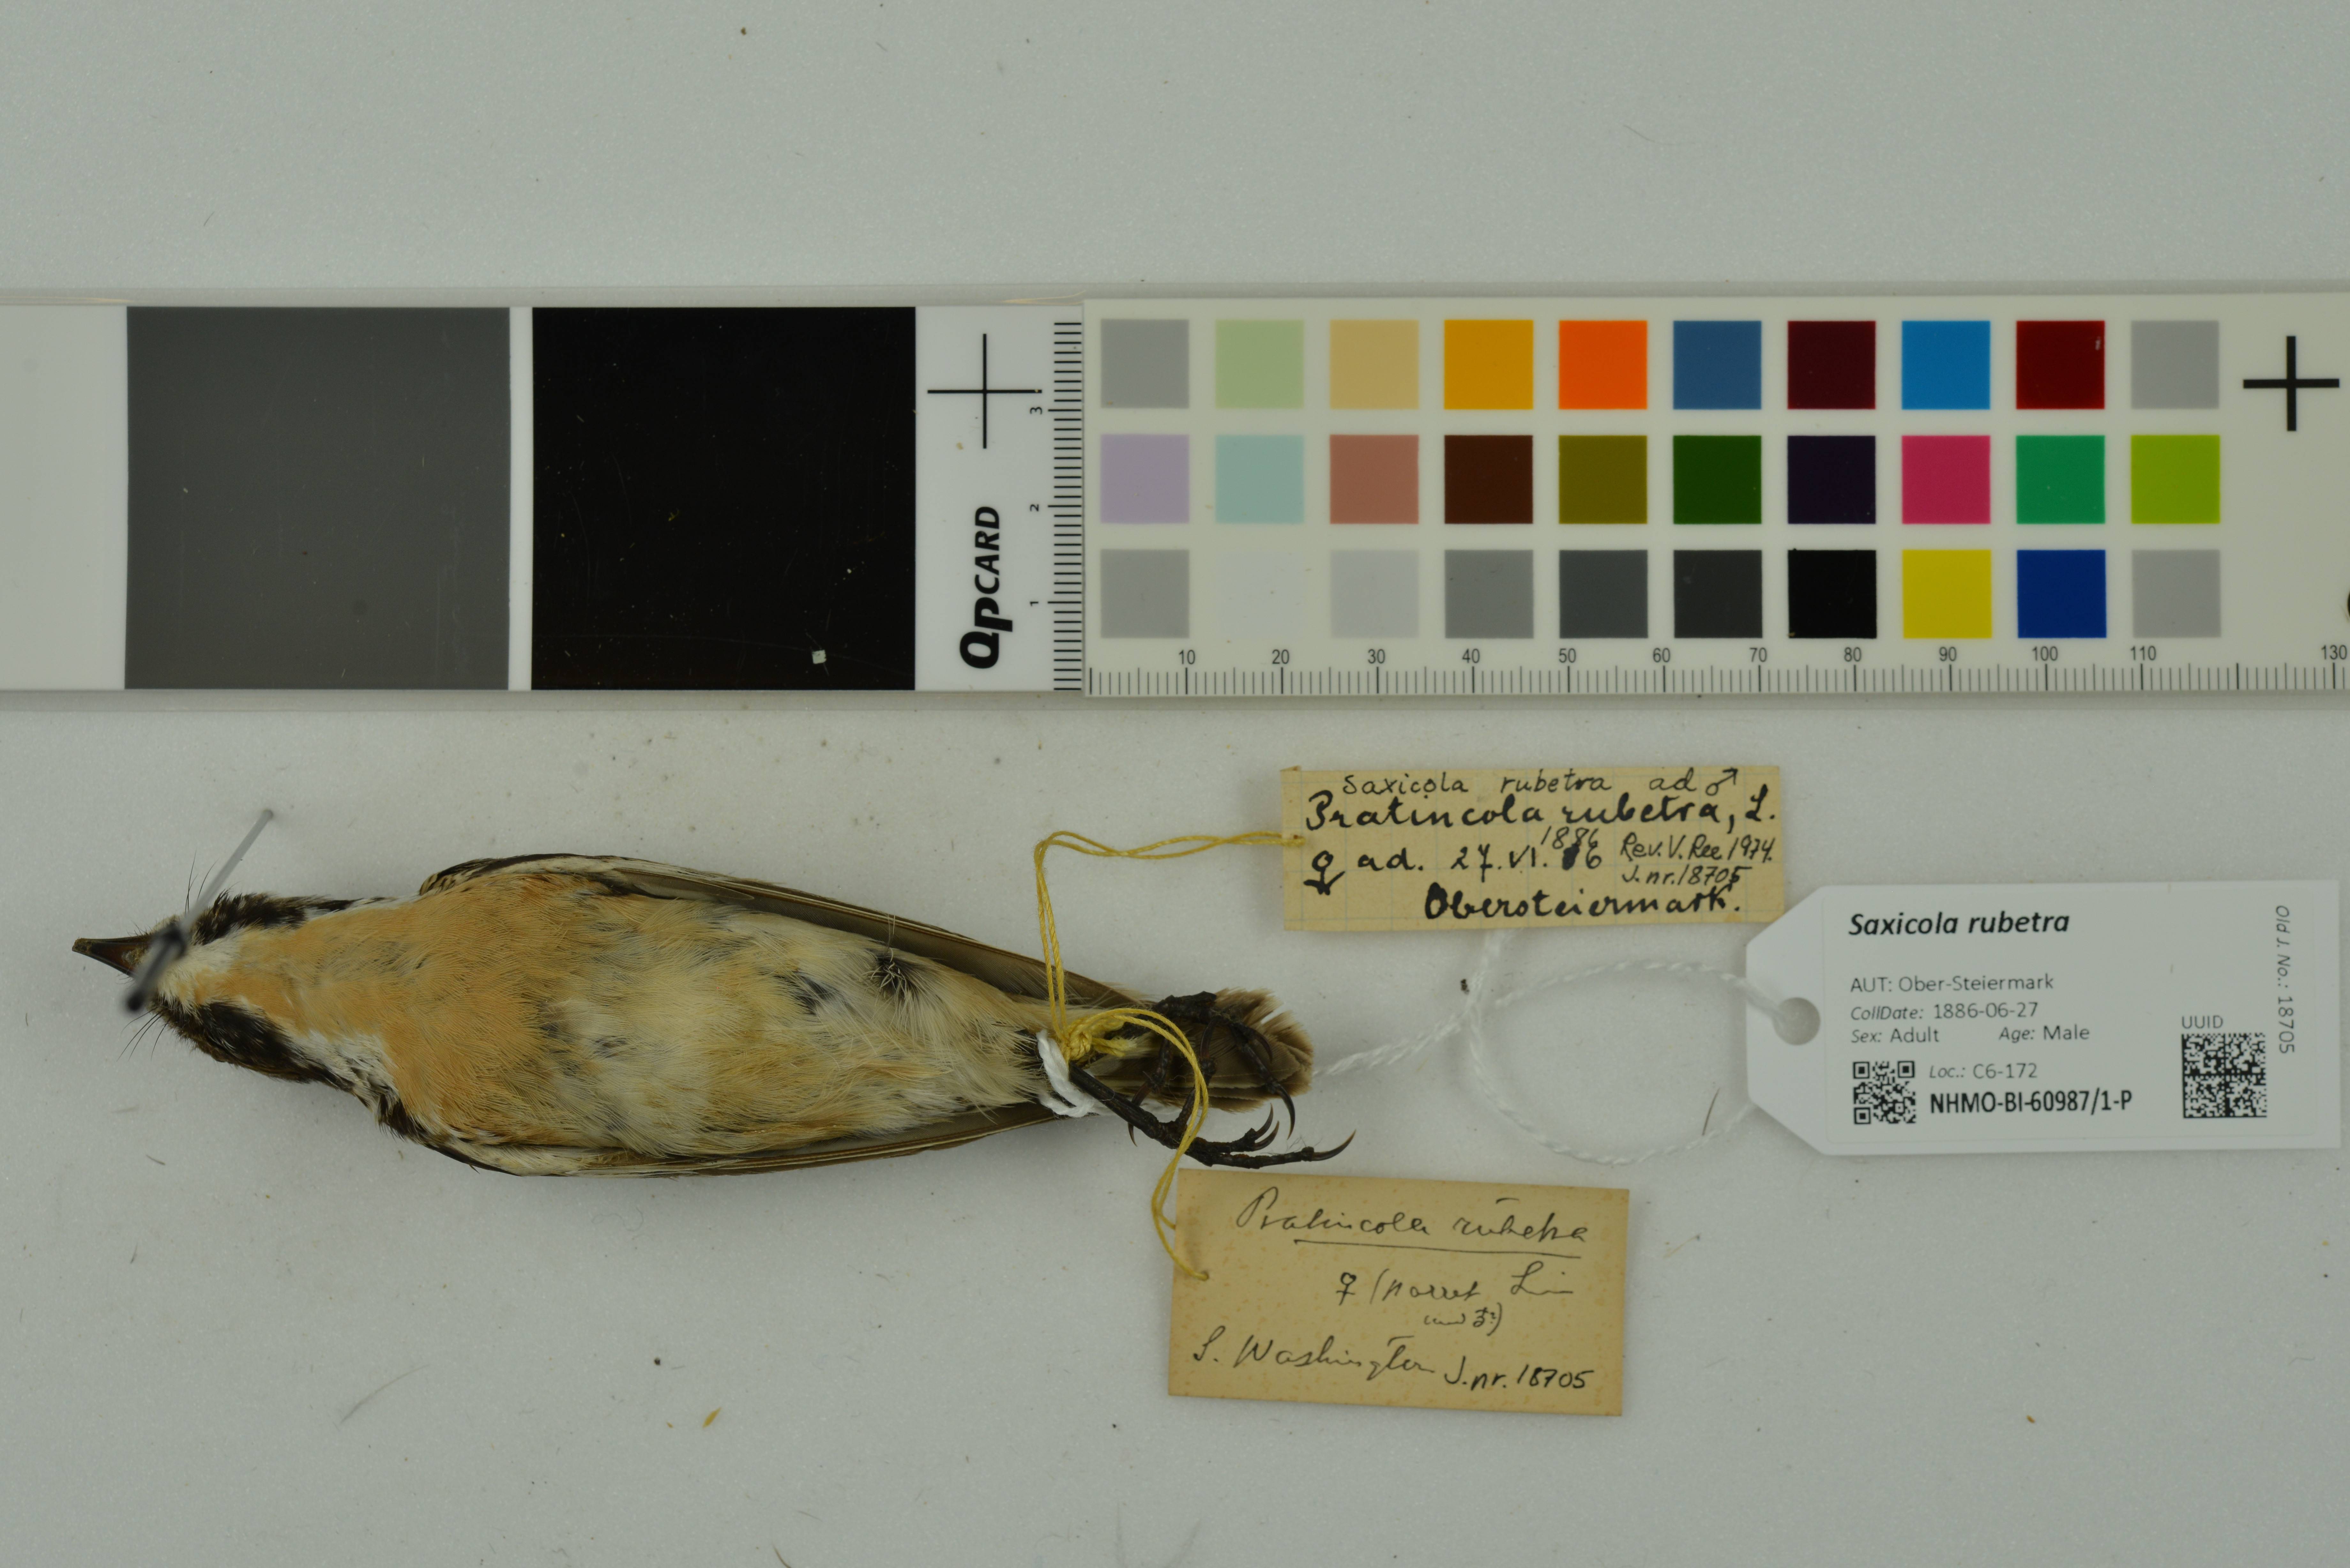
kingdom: Animalia
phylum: Chordata
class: Aves
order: Passeriformes
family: Muscicapidae
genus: Saxicola
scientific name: Saxicola rubetra
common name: Whinchat
